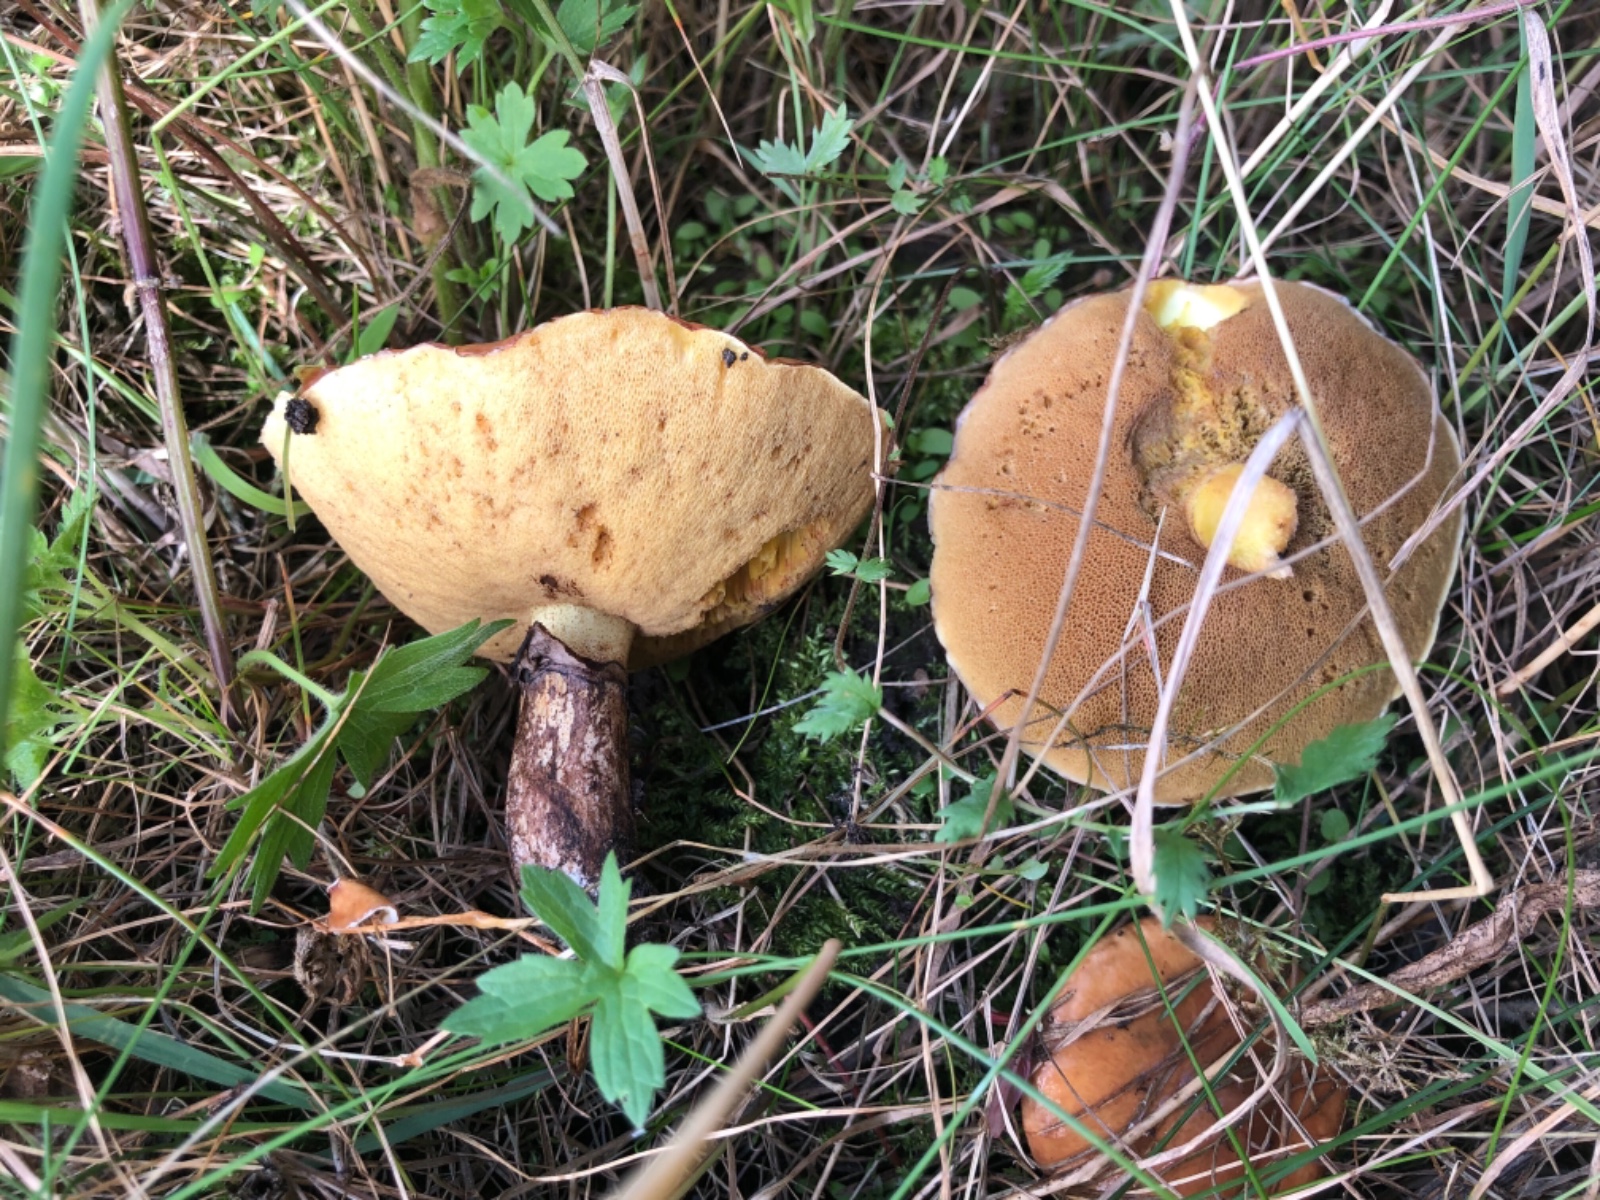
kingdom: Fungi
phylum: Basidiomycota
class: Agaricomycetes
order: Boletales
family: Suillaceae
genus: Suillus
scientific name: Suillus luteus
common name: brungul slimrørhat
